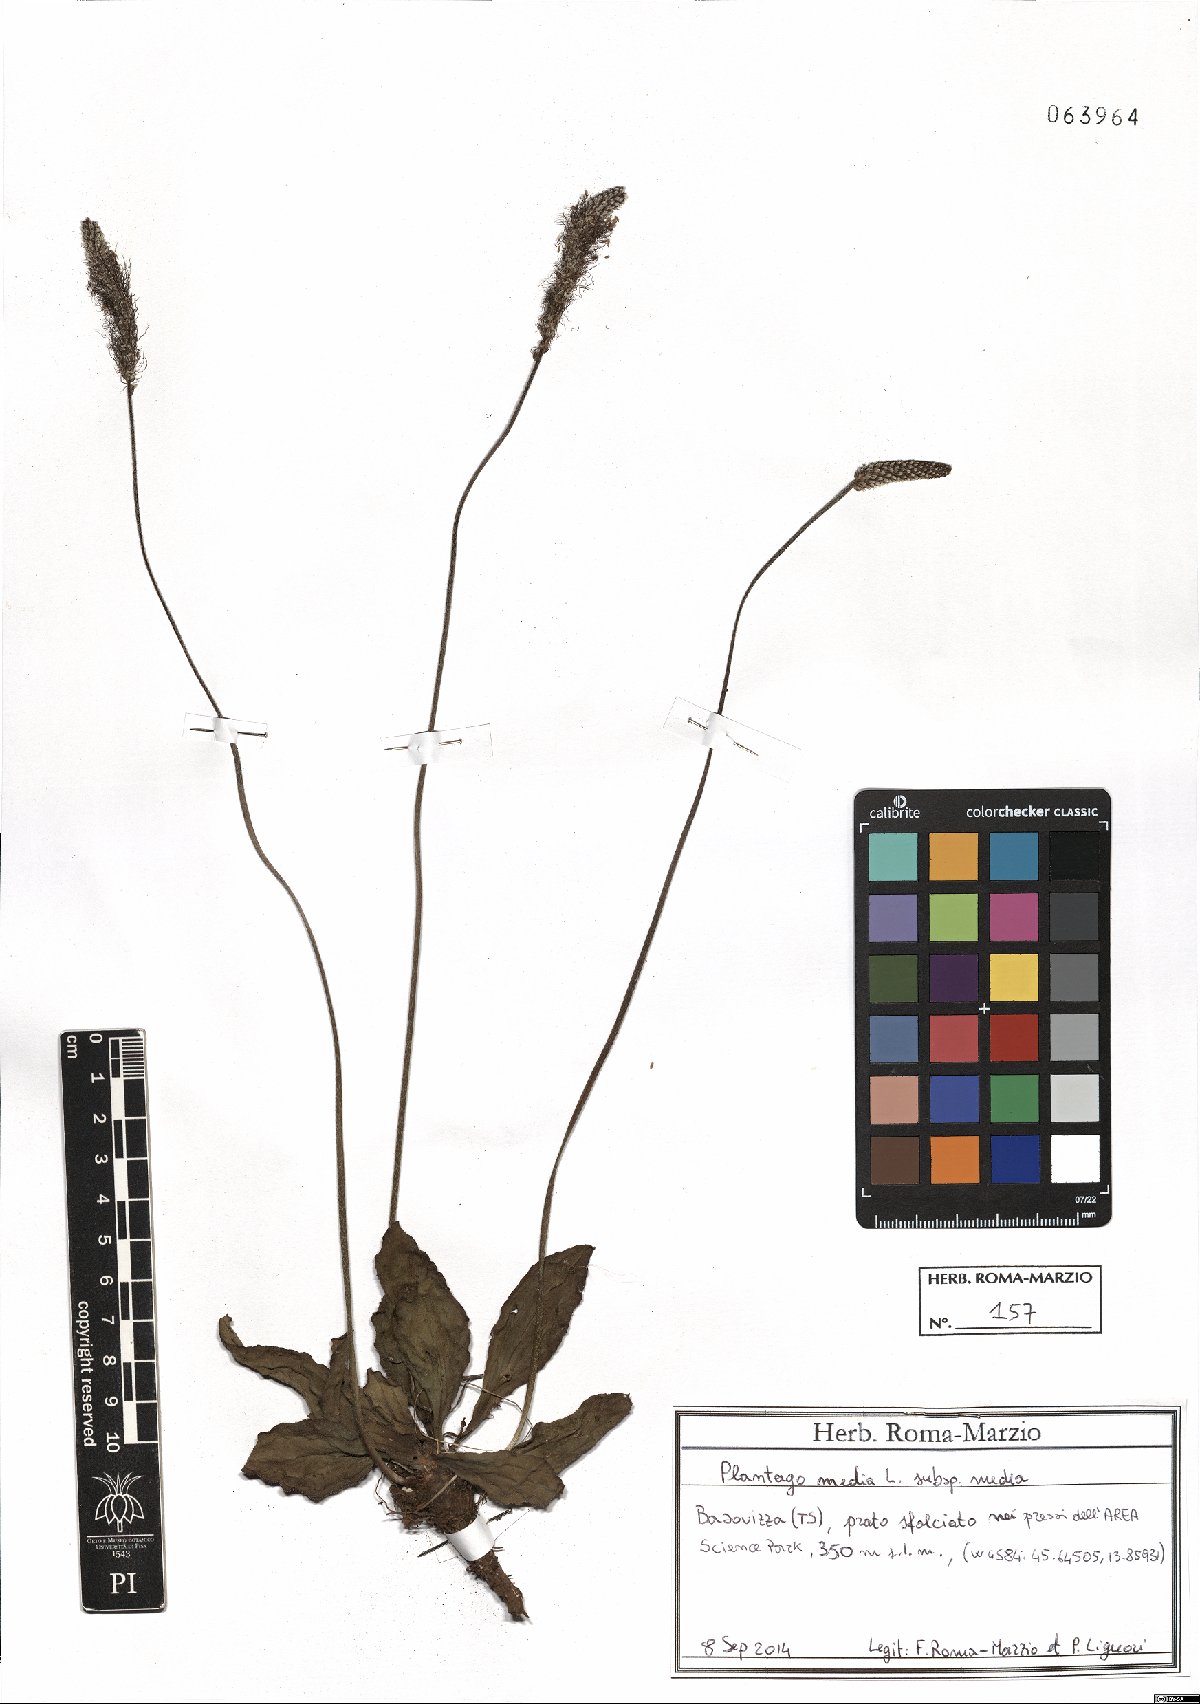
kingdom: Plantae
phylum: Tracheophyta
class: Magnoliopsida
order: Lamiales
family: Plantaginaceae
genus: Plantago
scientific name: Plantago media
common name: Hoary plantain
